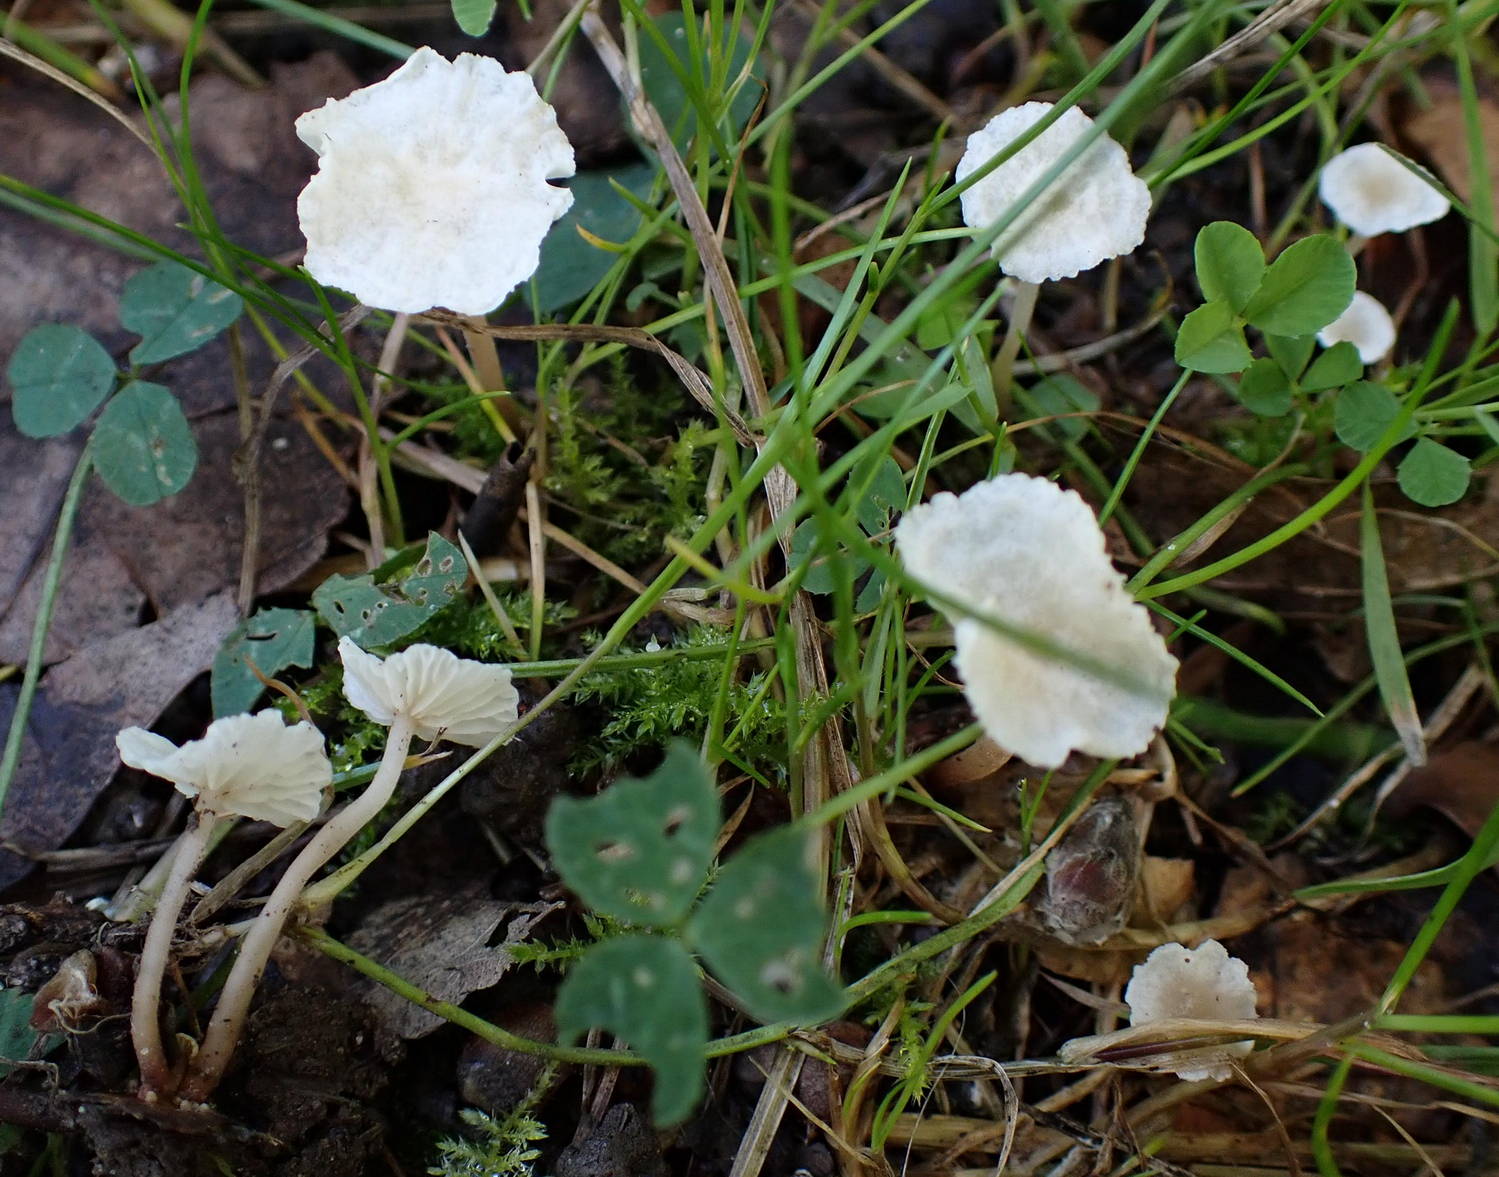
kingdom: Fungi
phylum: Basidiomycota
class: Agaricomycetes
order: Agaricales
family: Omphalotaceae
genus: Collybiopsis
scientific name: Collybiopsis vaillantii
